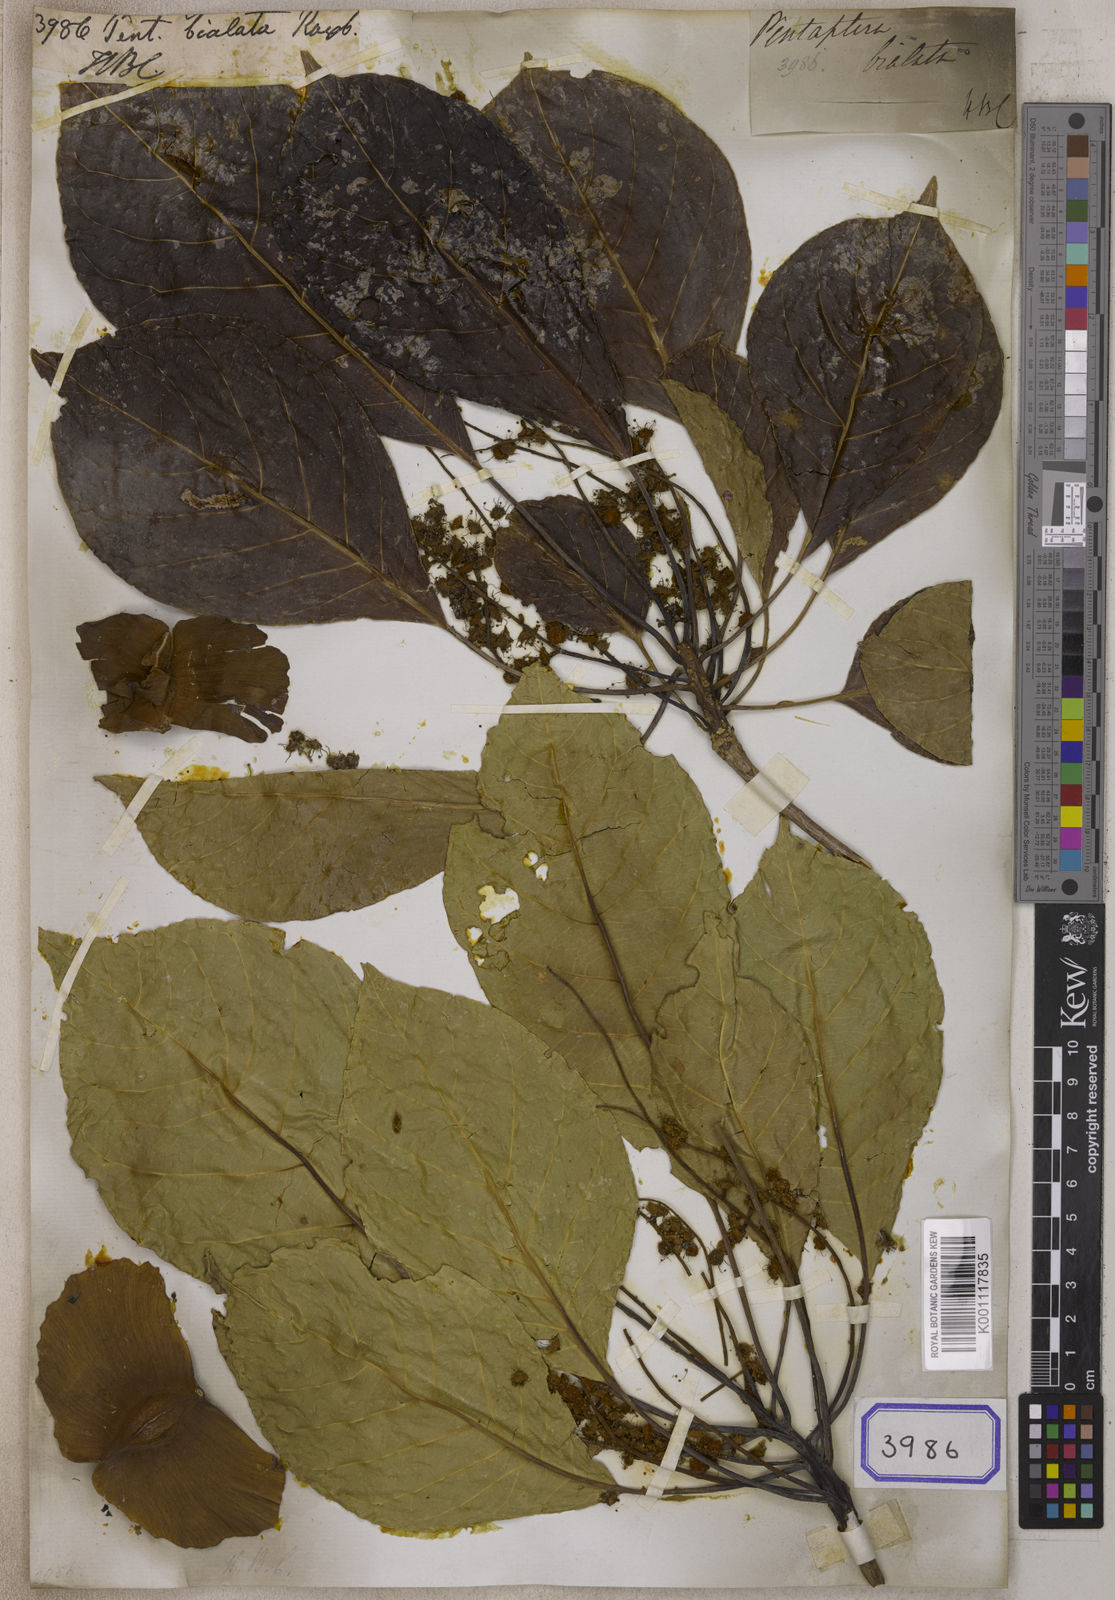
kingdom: Plantae
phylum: Tracheophyta
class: Magnoliopsida
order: Myrtales
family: Combretaceae
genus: Terminalia
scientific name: Terminalia calamansanai
